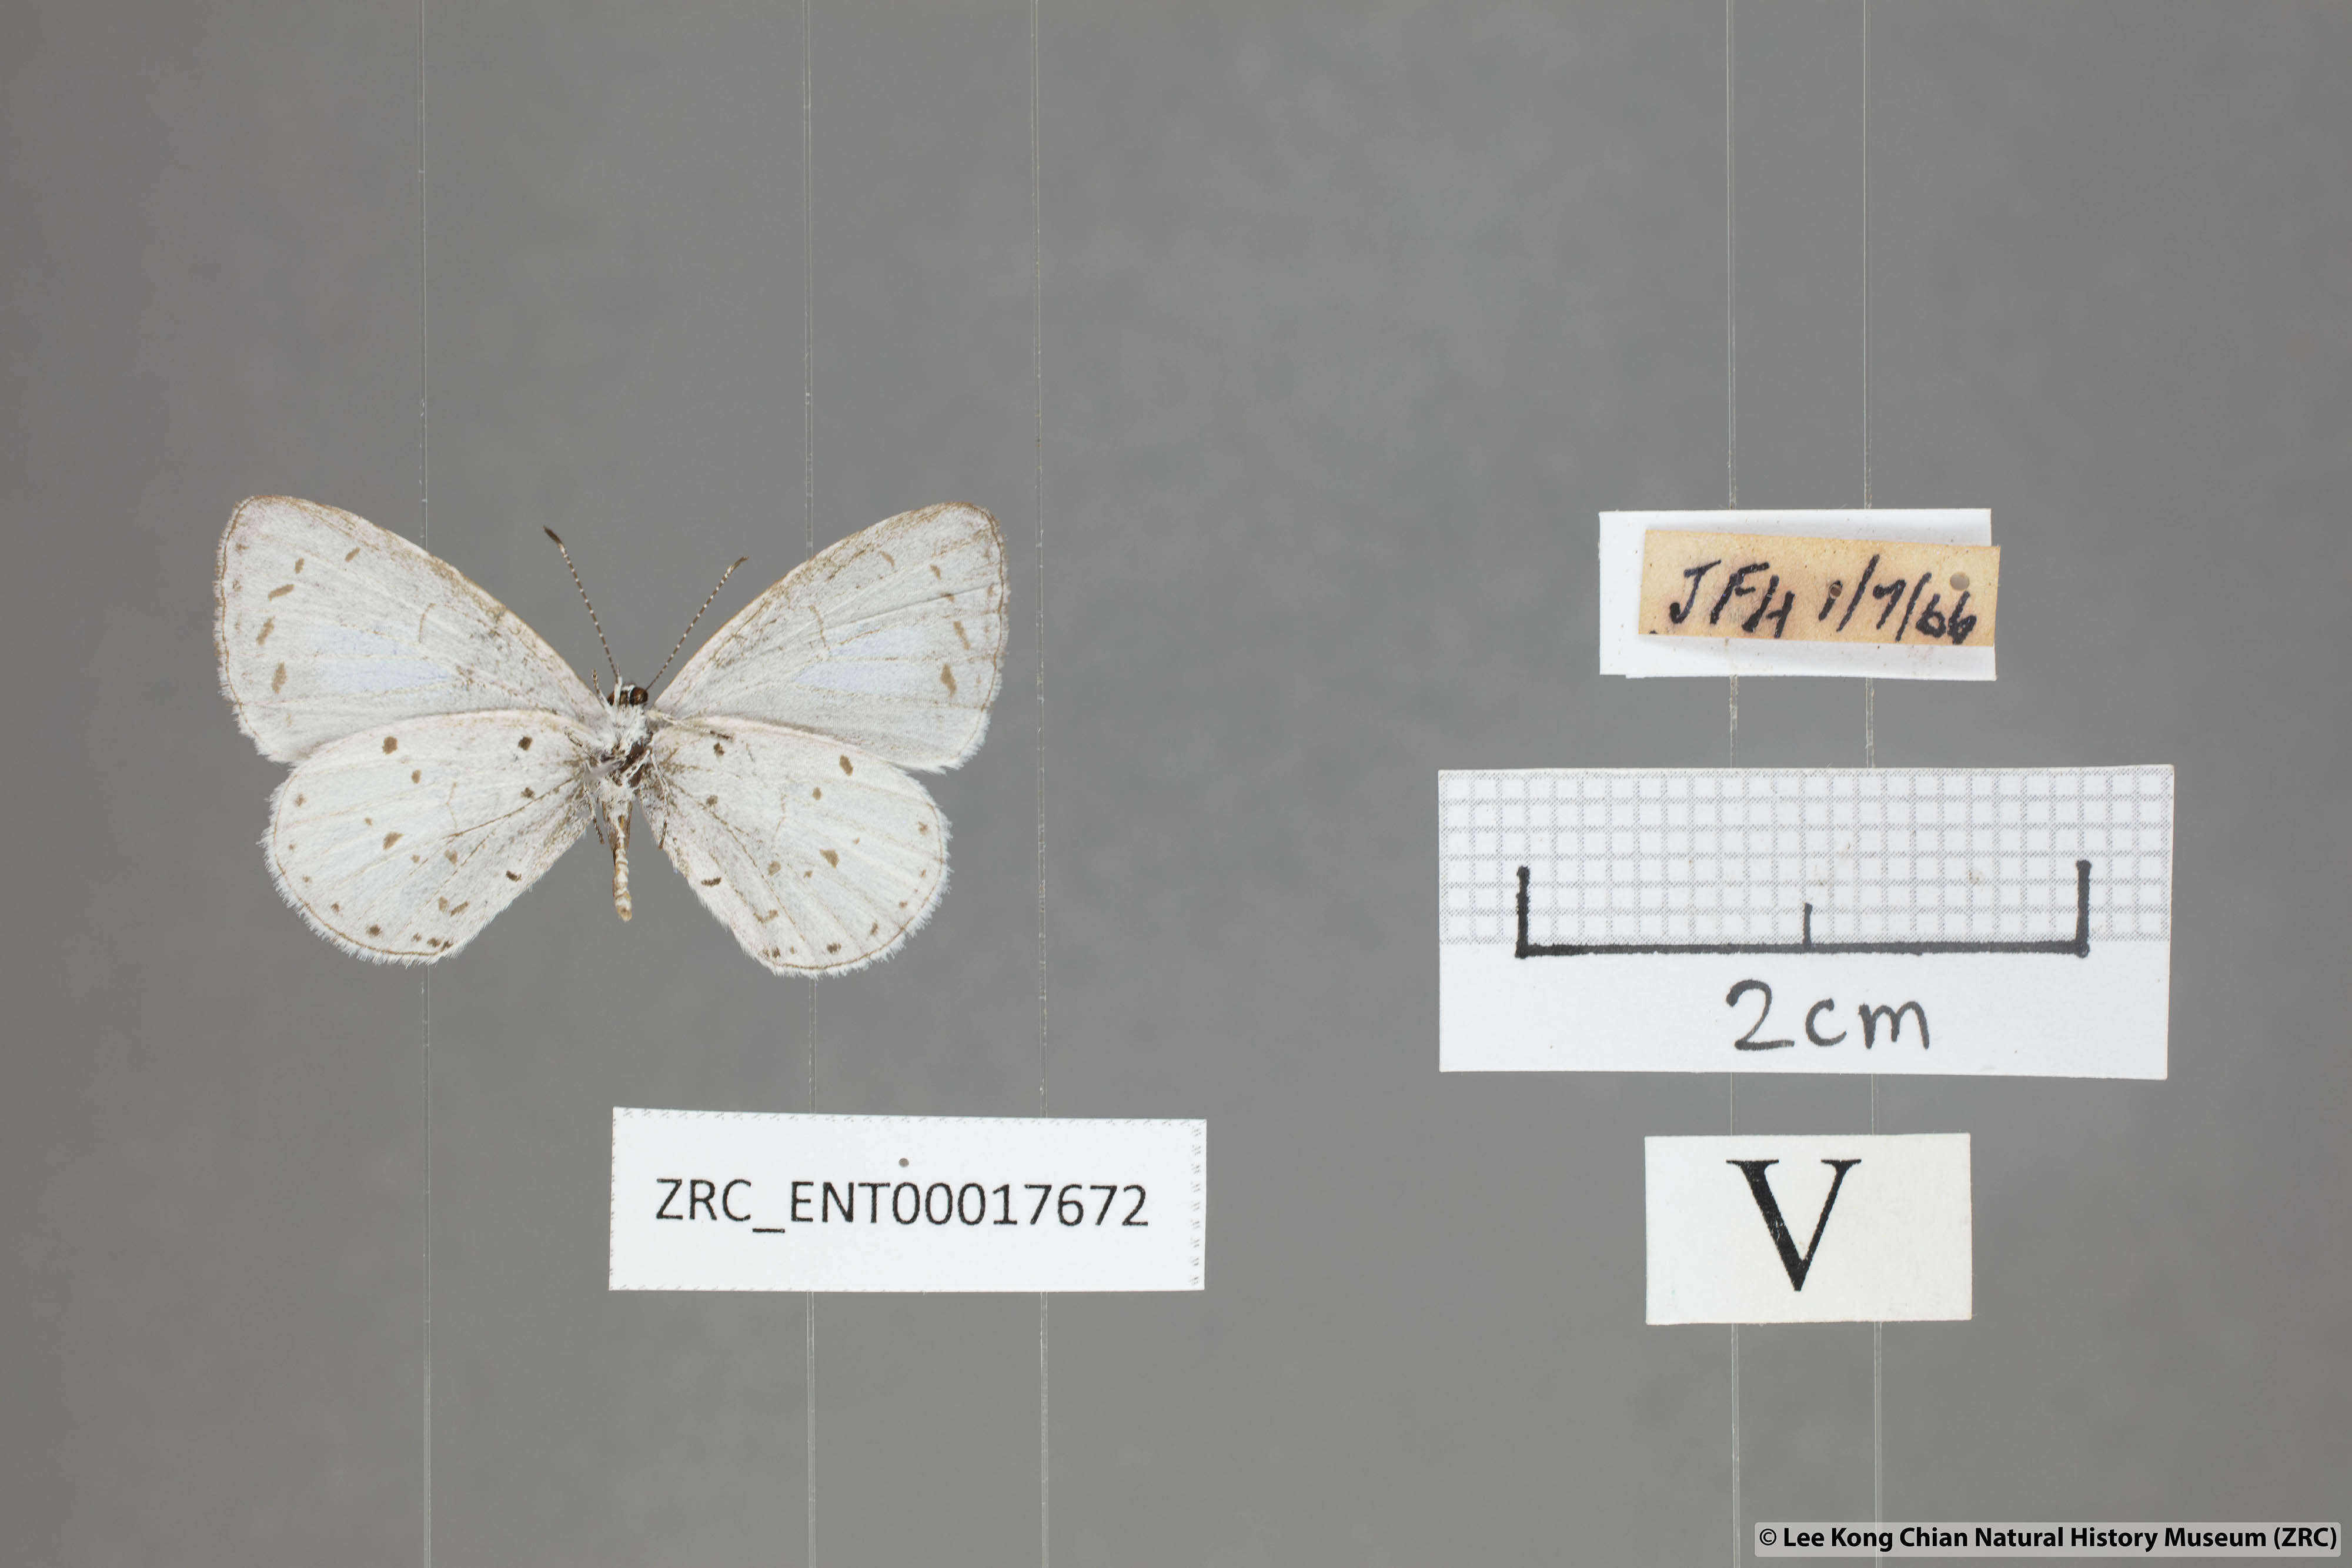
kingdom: Animalia
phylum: Arthropoda
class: Insecta
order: Lepidoptera
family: Lycaenidae
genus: Udara
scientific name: Udara albocaerulea
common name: Albocerulean
